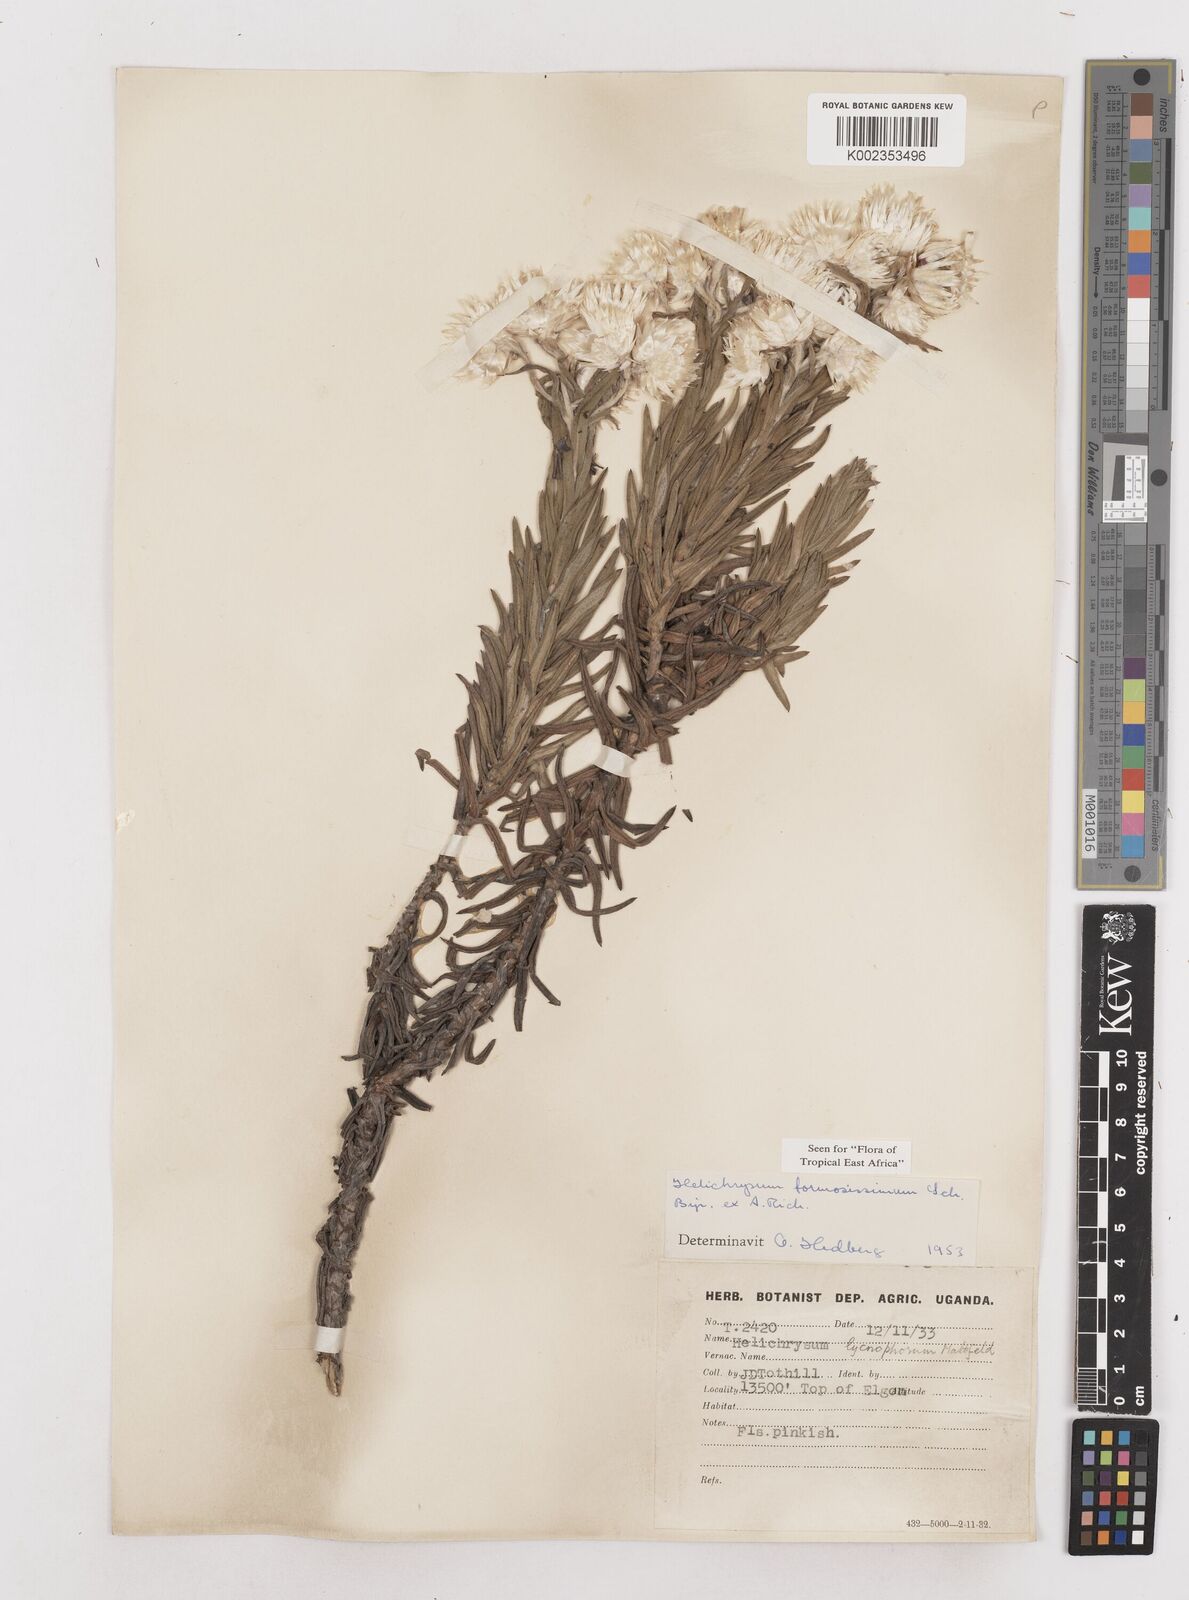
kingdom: Plantae
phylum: Tracheophyta
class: Magnoliopsida
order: Asterales
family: Asteraceae
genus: Helichrysum
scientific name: Helichrysum formosissimum
